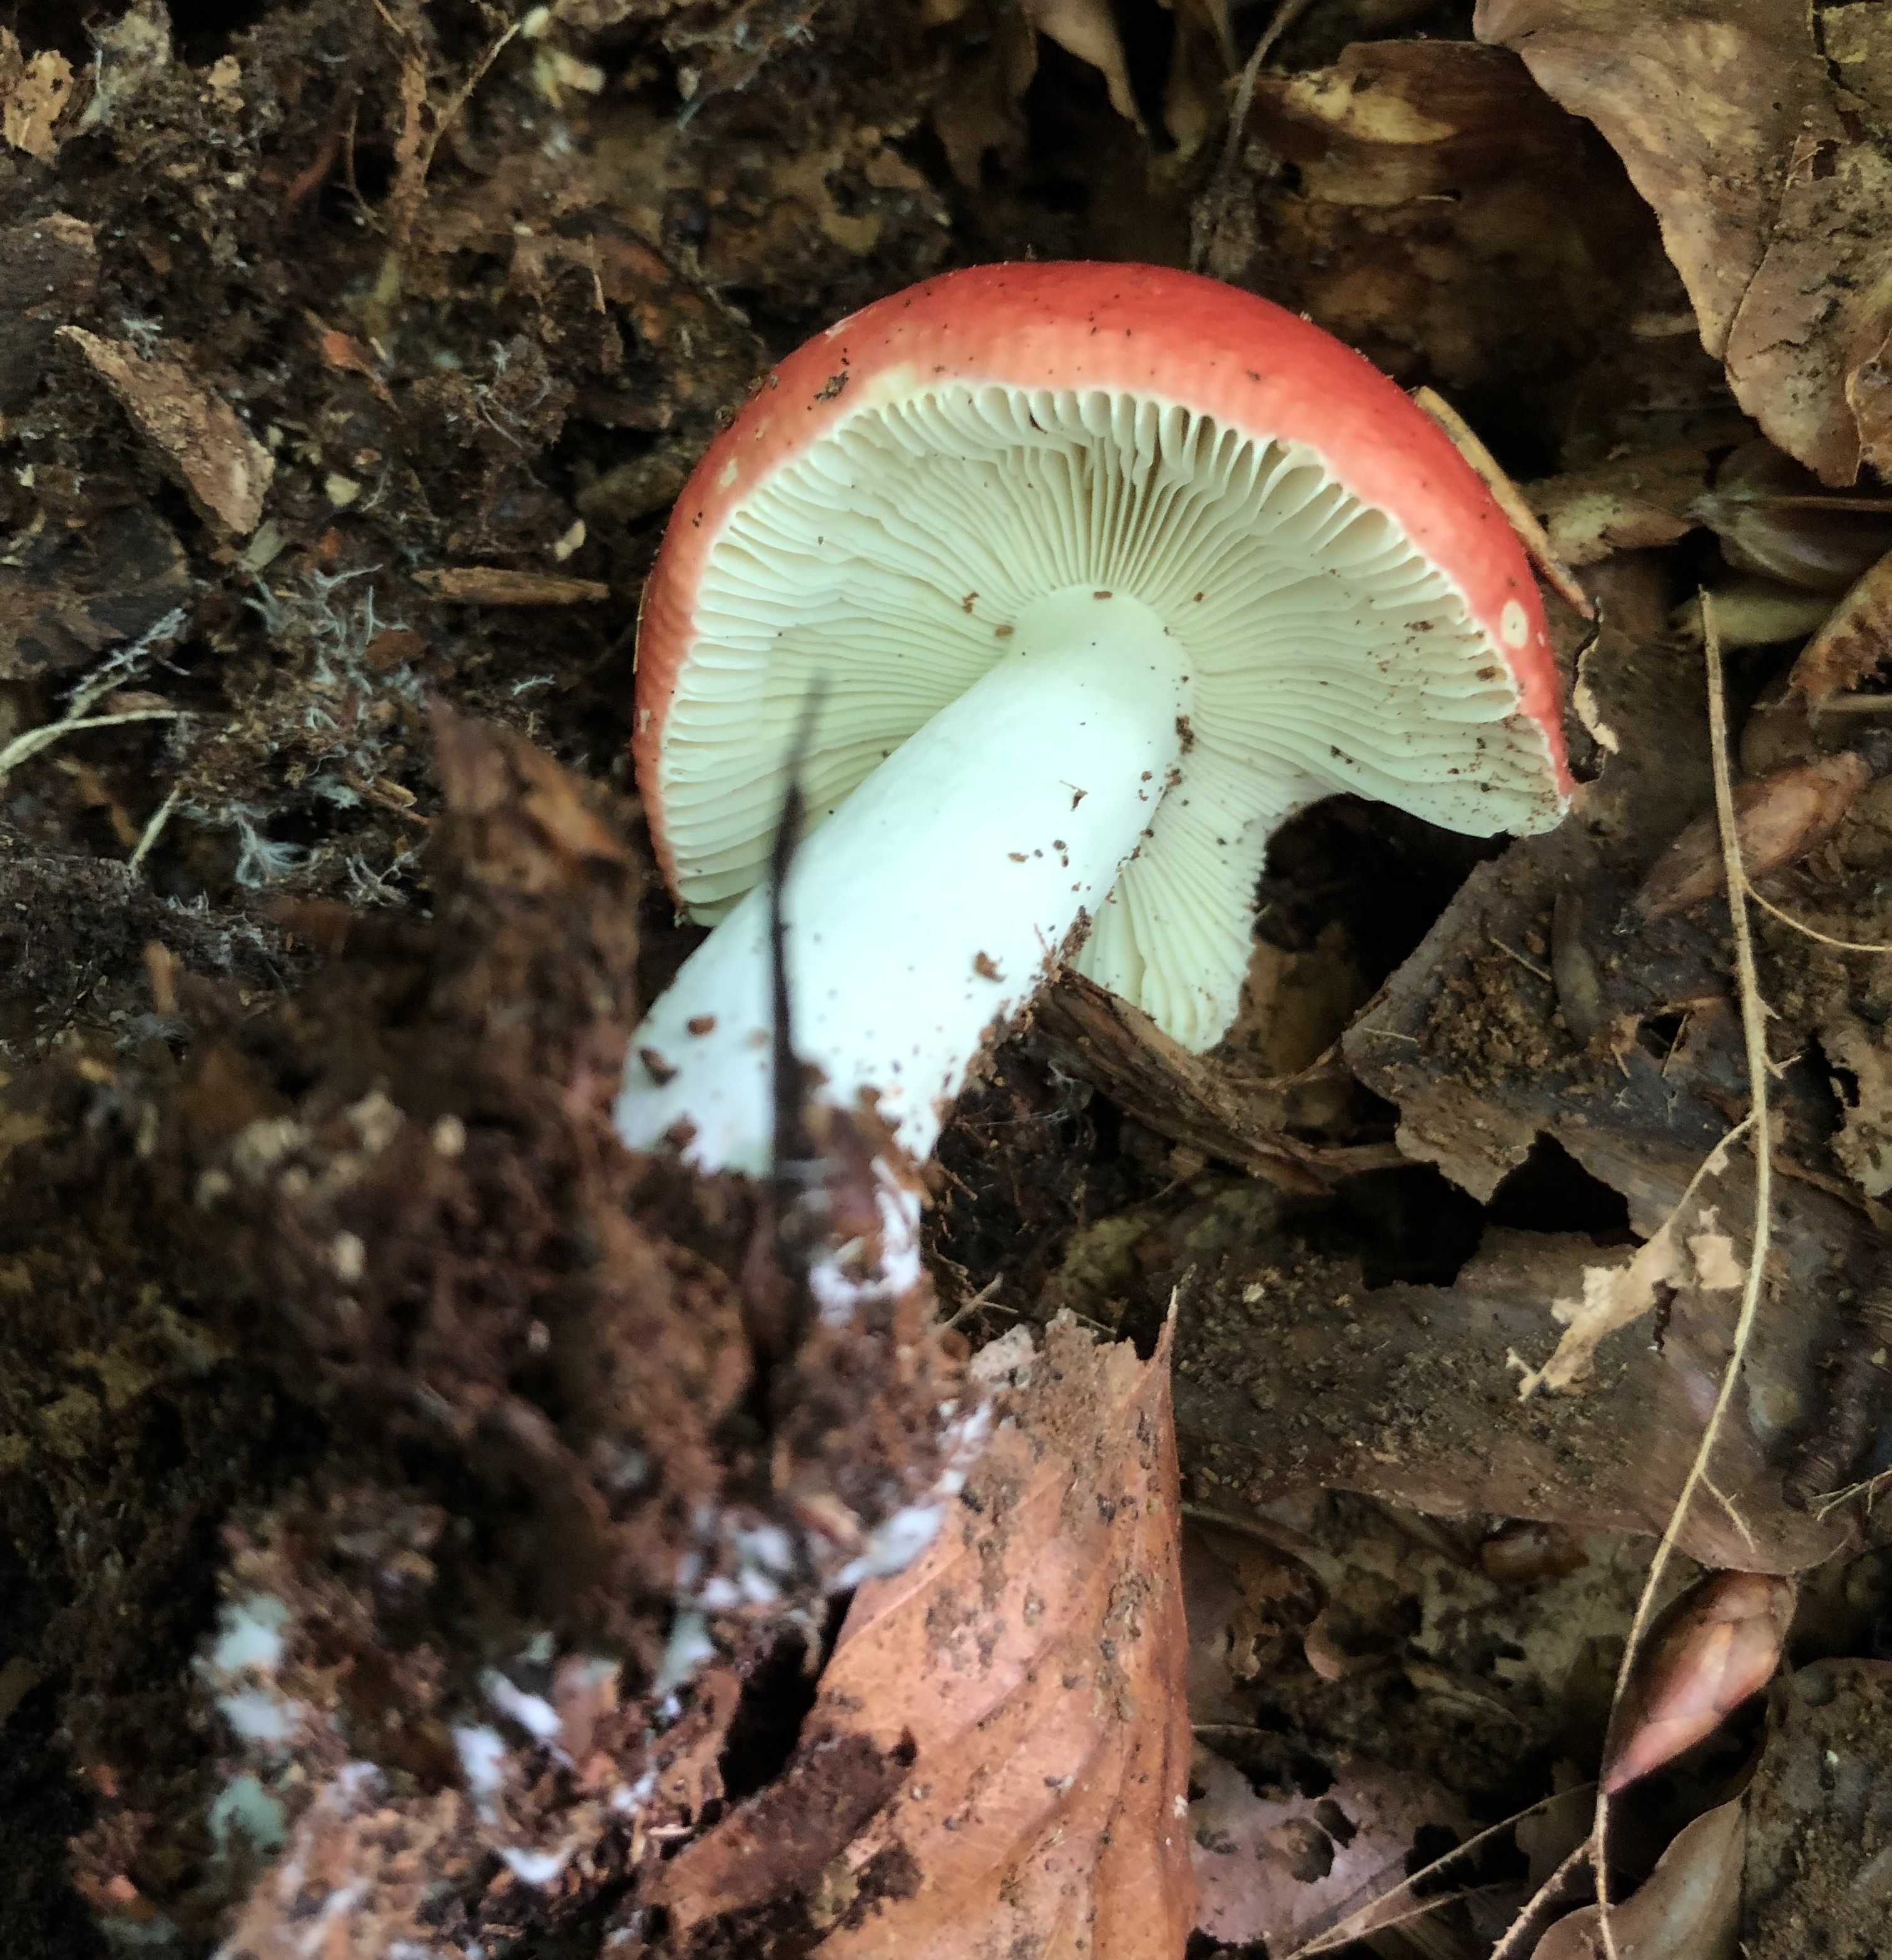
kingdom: Fungi
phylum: Basidiomycota
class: Agaricomycetes
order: Russulales
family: Russulaceae
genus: Russula
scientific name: Russula
